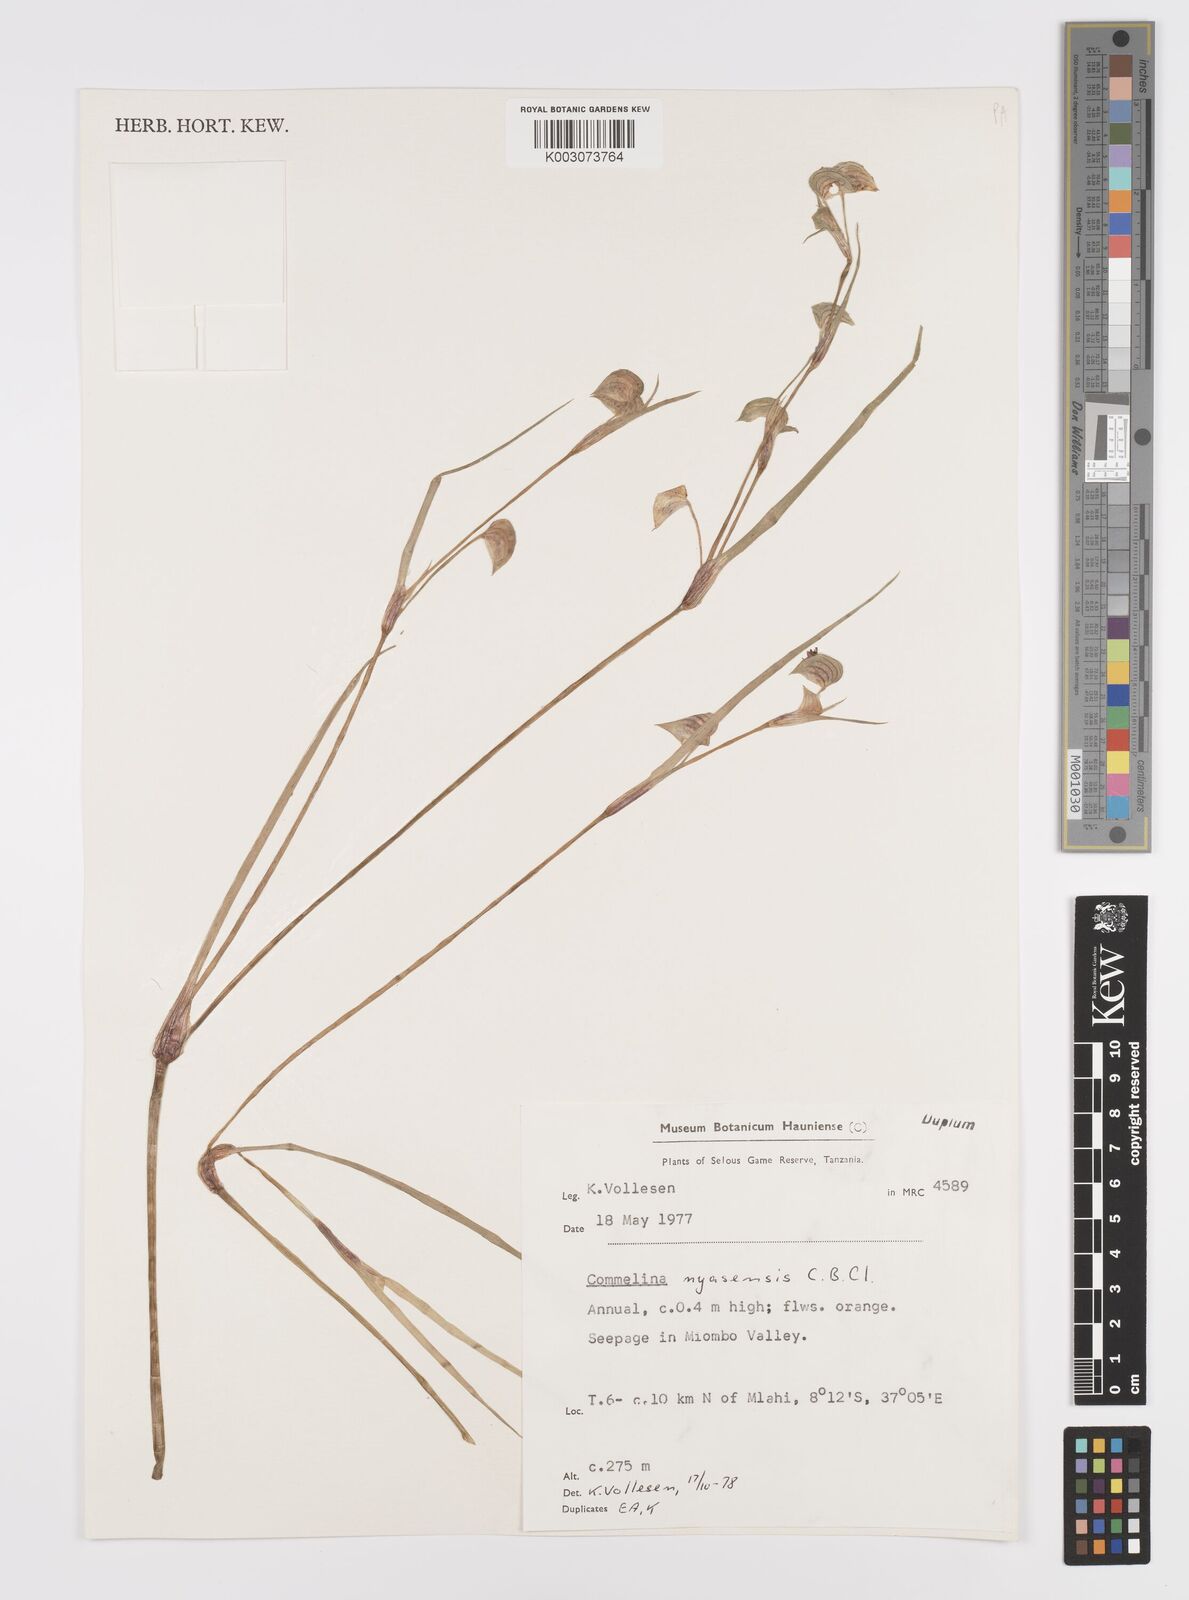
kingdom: Plantae
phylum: Tracheophyta
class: Liliopsida
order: Commelinales
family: Commelinaceae
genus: Commelina
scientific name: Commelina nyasensis
